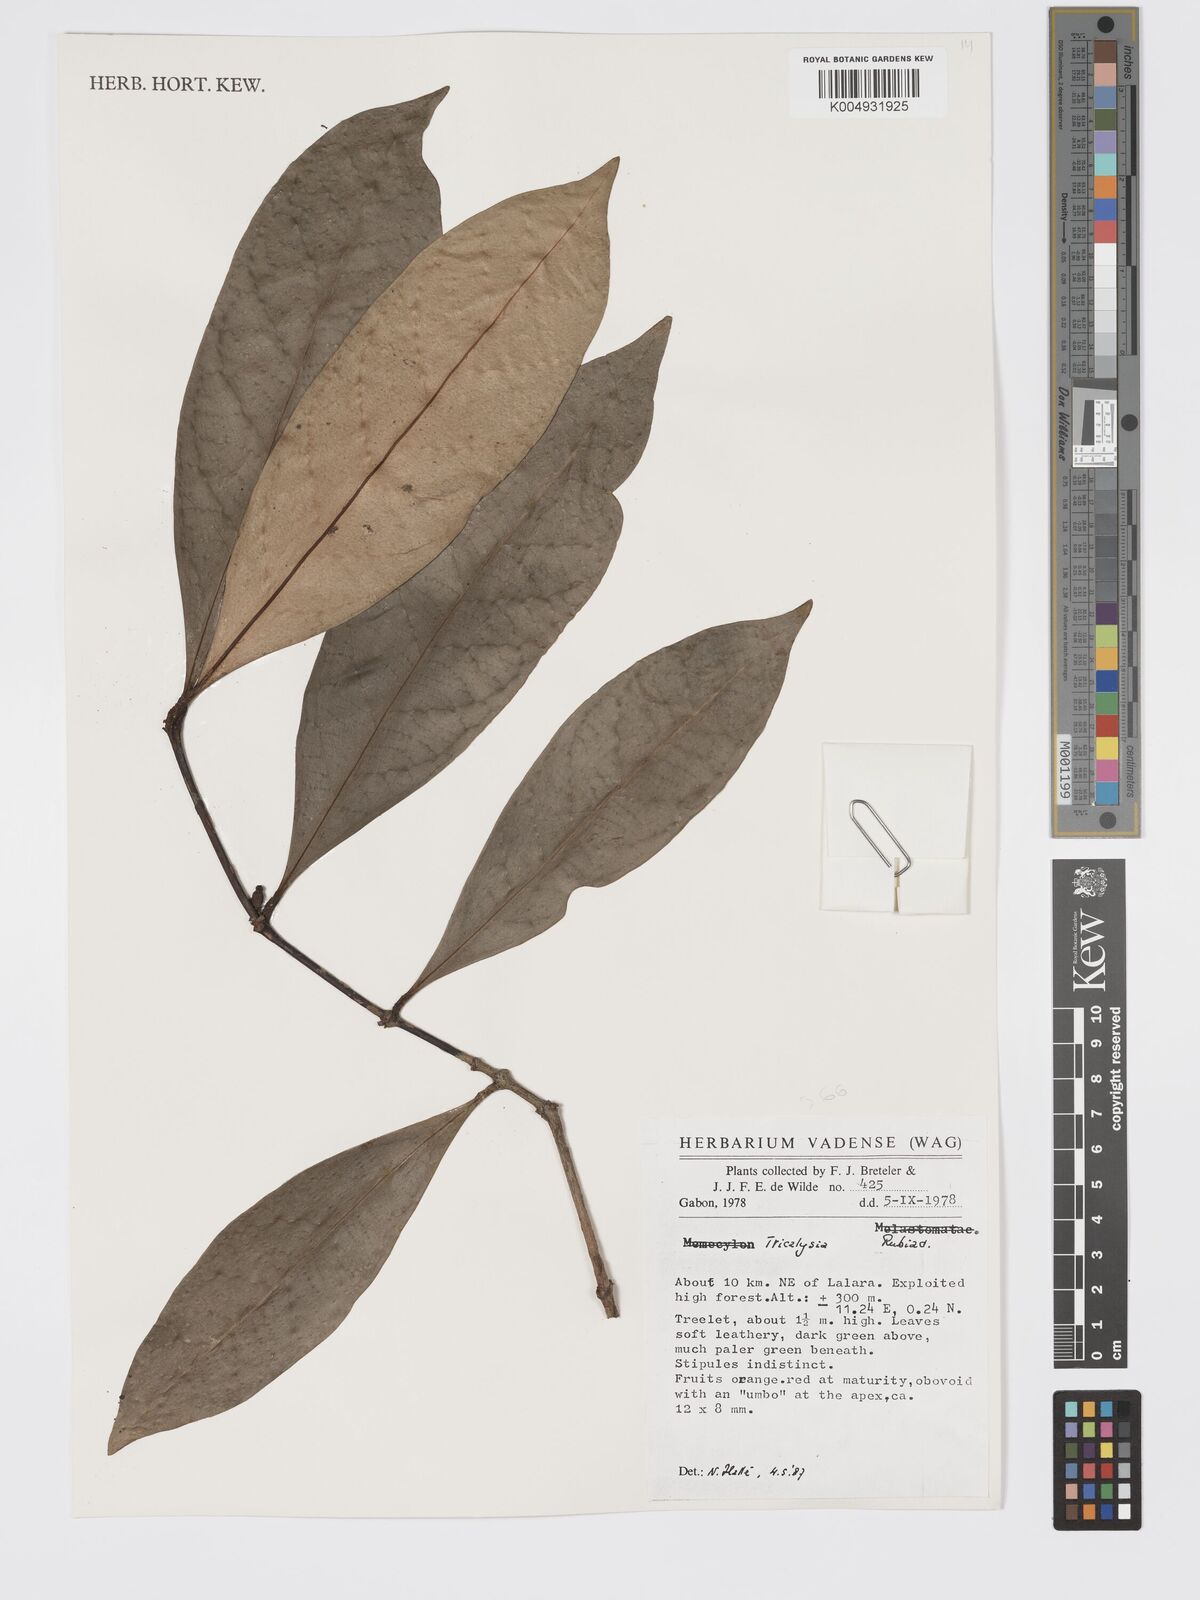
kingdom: Plantae
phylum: Tracheophyta
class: Magnoliopsida
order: Gentianales
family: Rubiaceae
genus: Tricalysia
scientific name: Tricalysia
